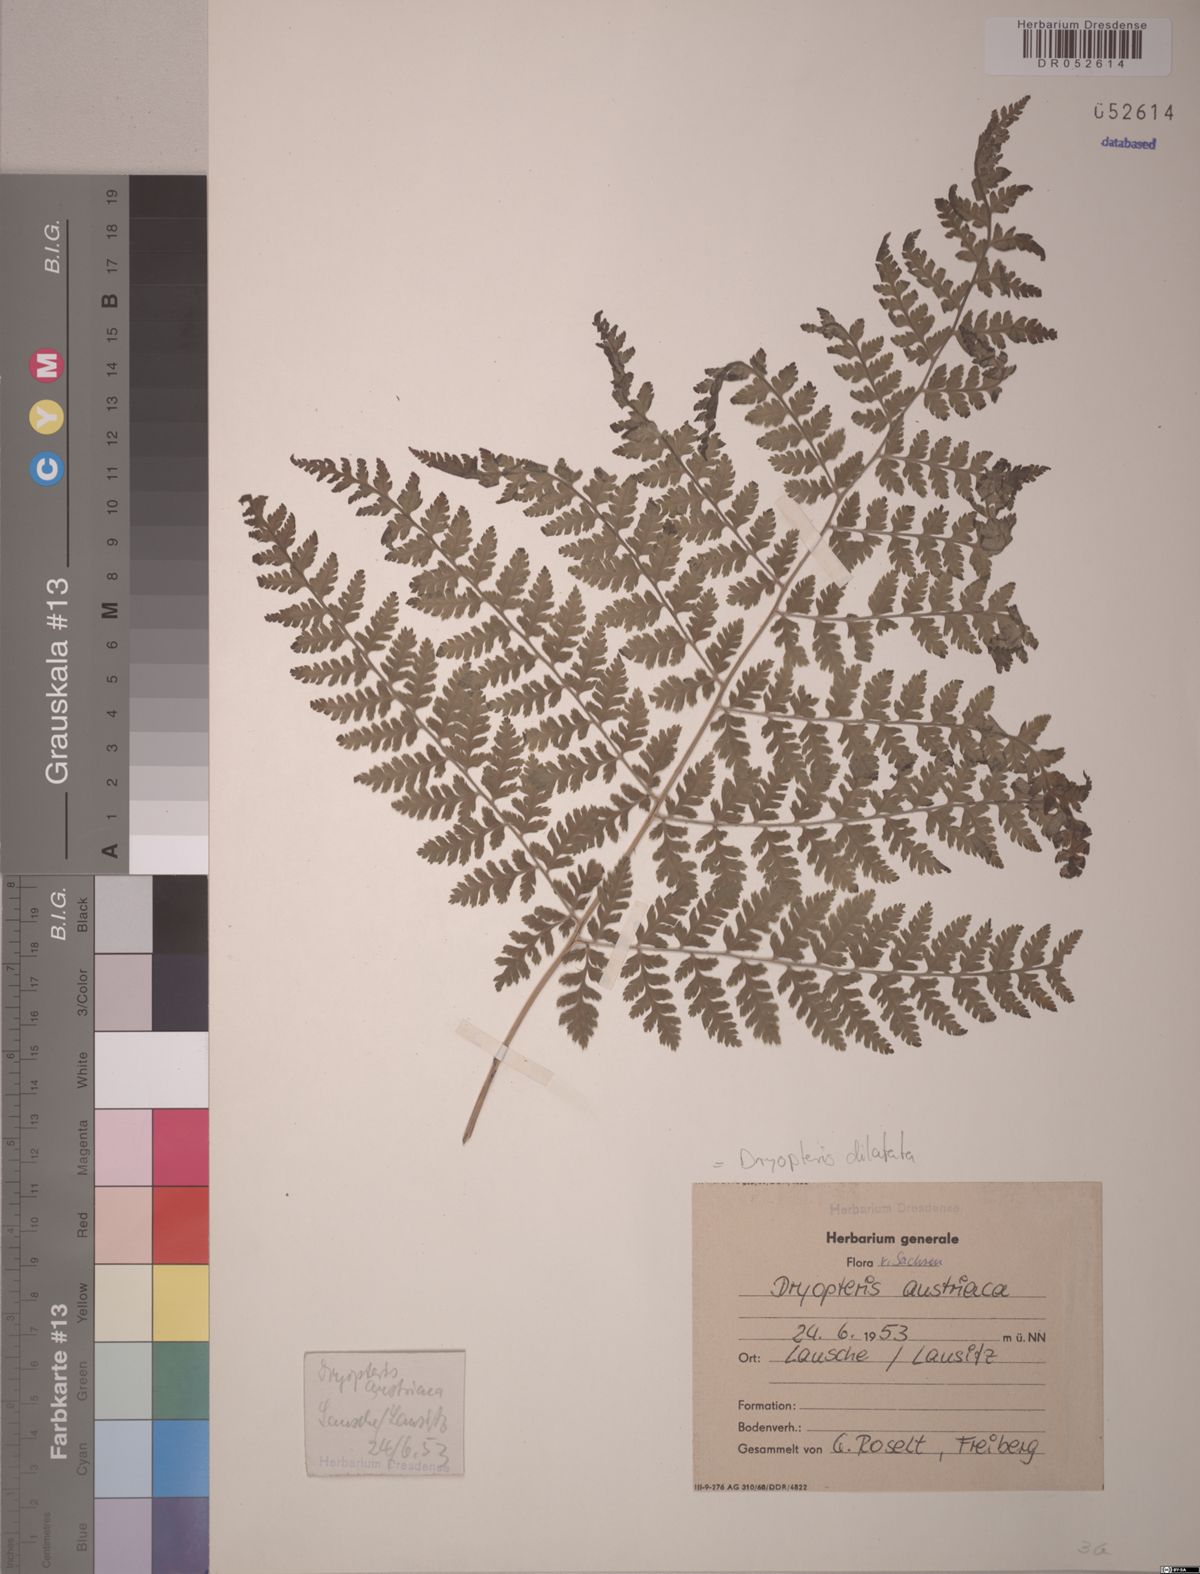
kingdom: Plantae
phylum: Tracheophyta
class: Polypodiopsida
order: Polypodiales
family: Dryopteridaceae
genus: Dryopteris
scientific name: Dryopteris dilatata
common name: Broad buckler-fern
